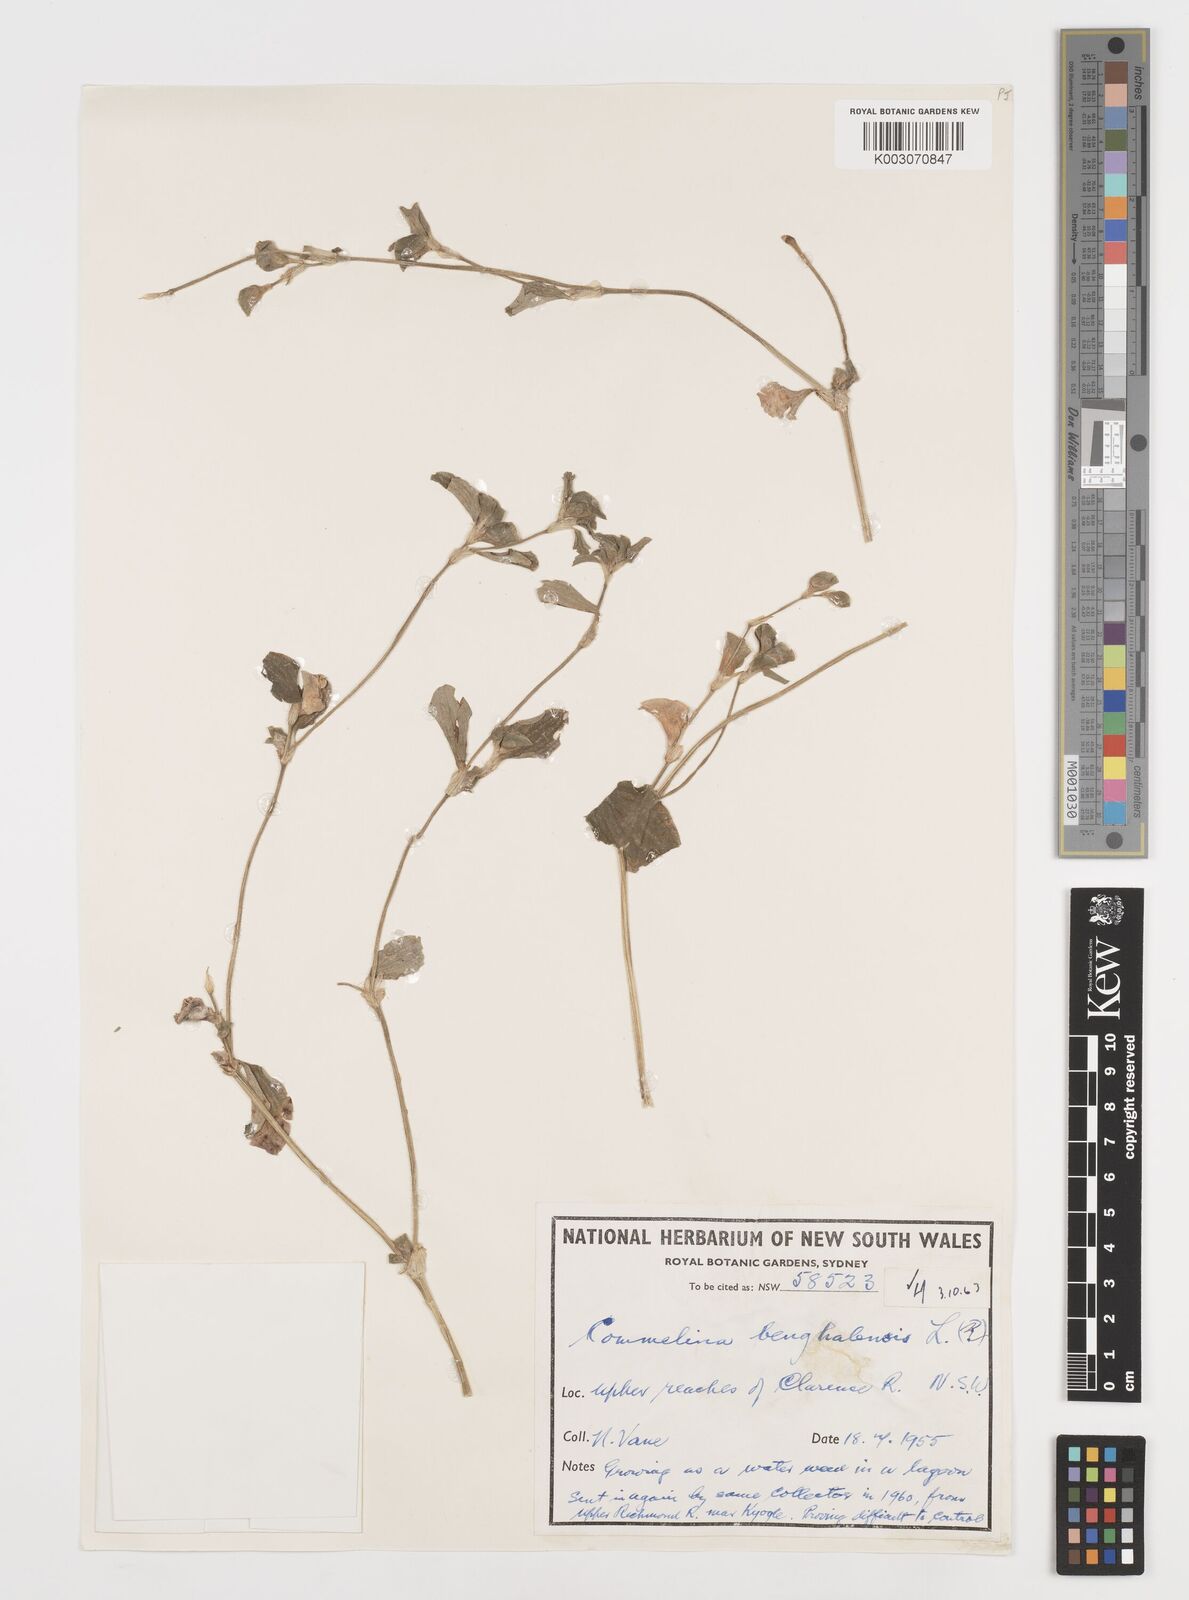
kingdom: Plantae
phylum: Tracheophyta
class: Liliopsida
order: Commelinales
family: Commelinaceae
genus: Commelina
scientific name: Commelina benghalensis
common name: Jio
